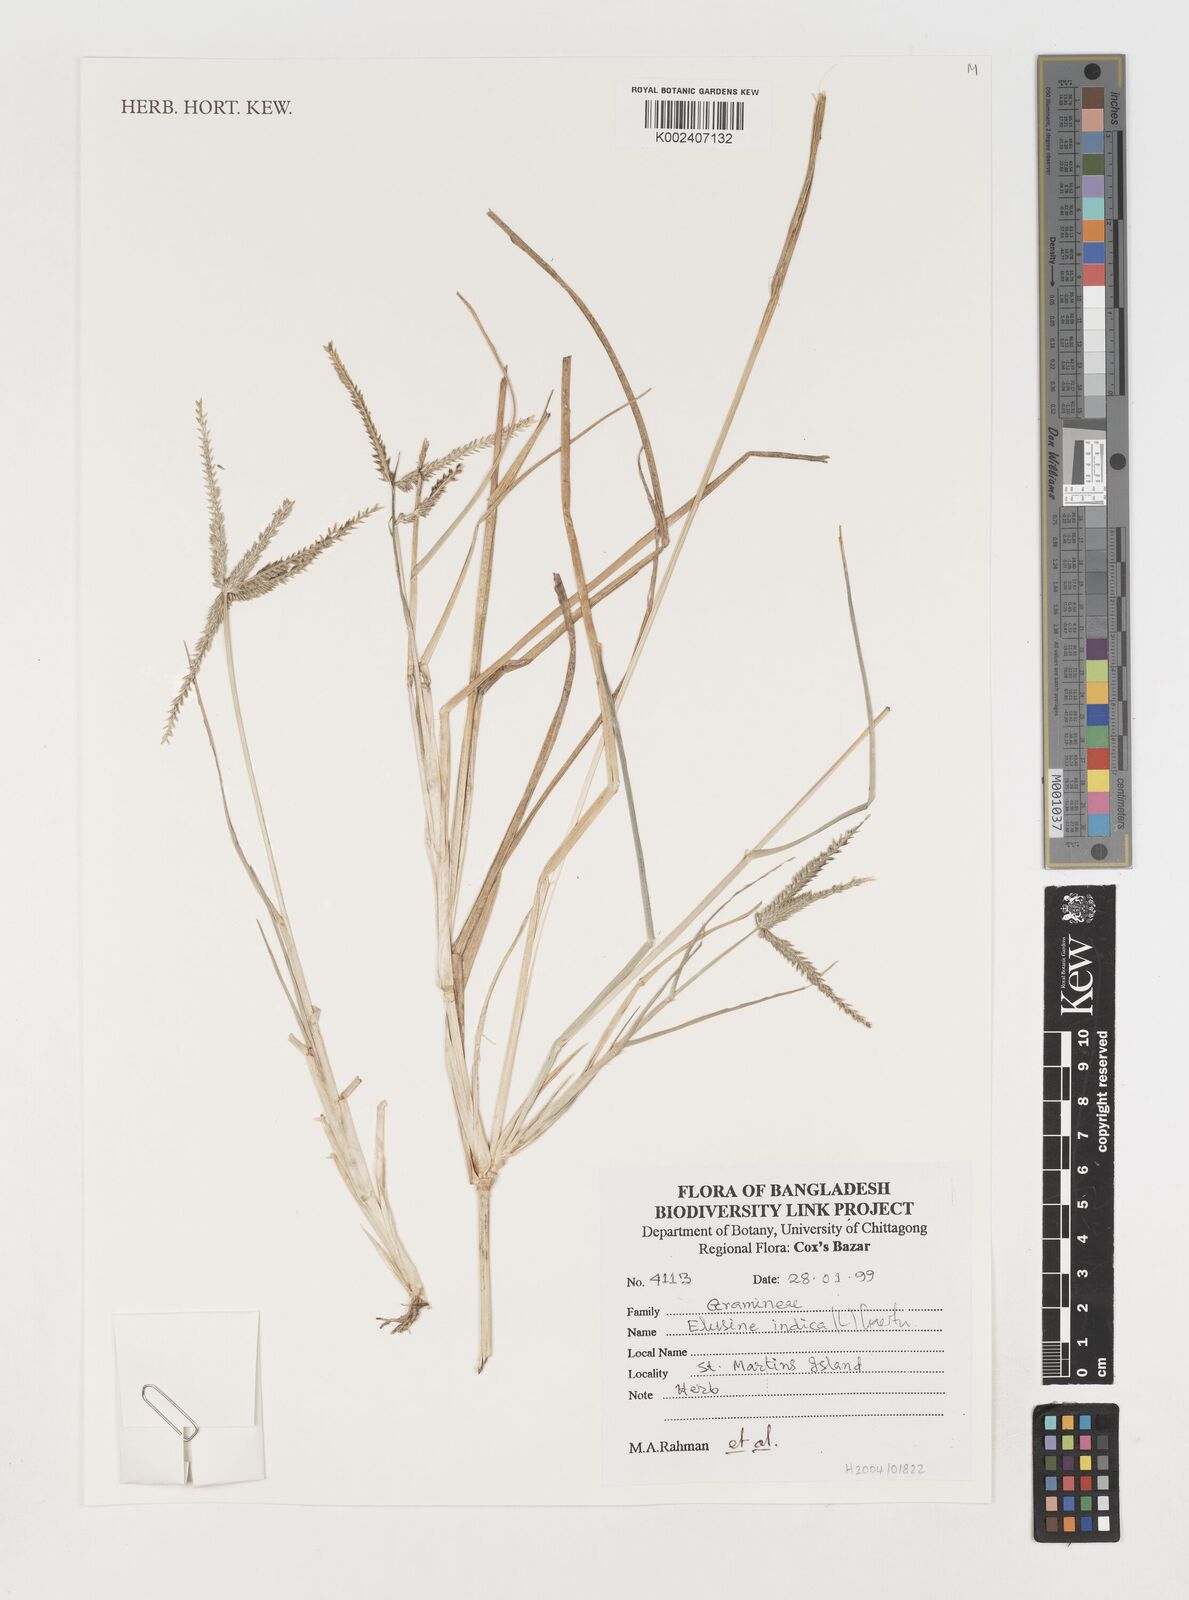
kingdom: Plantae
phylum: Tracheophyta
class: Liliopsida
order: Poales
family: Poaceae
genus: Eleusine
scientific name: Eleusine indica
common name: Yard-grass
